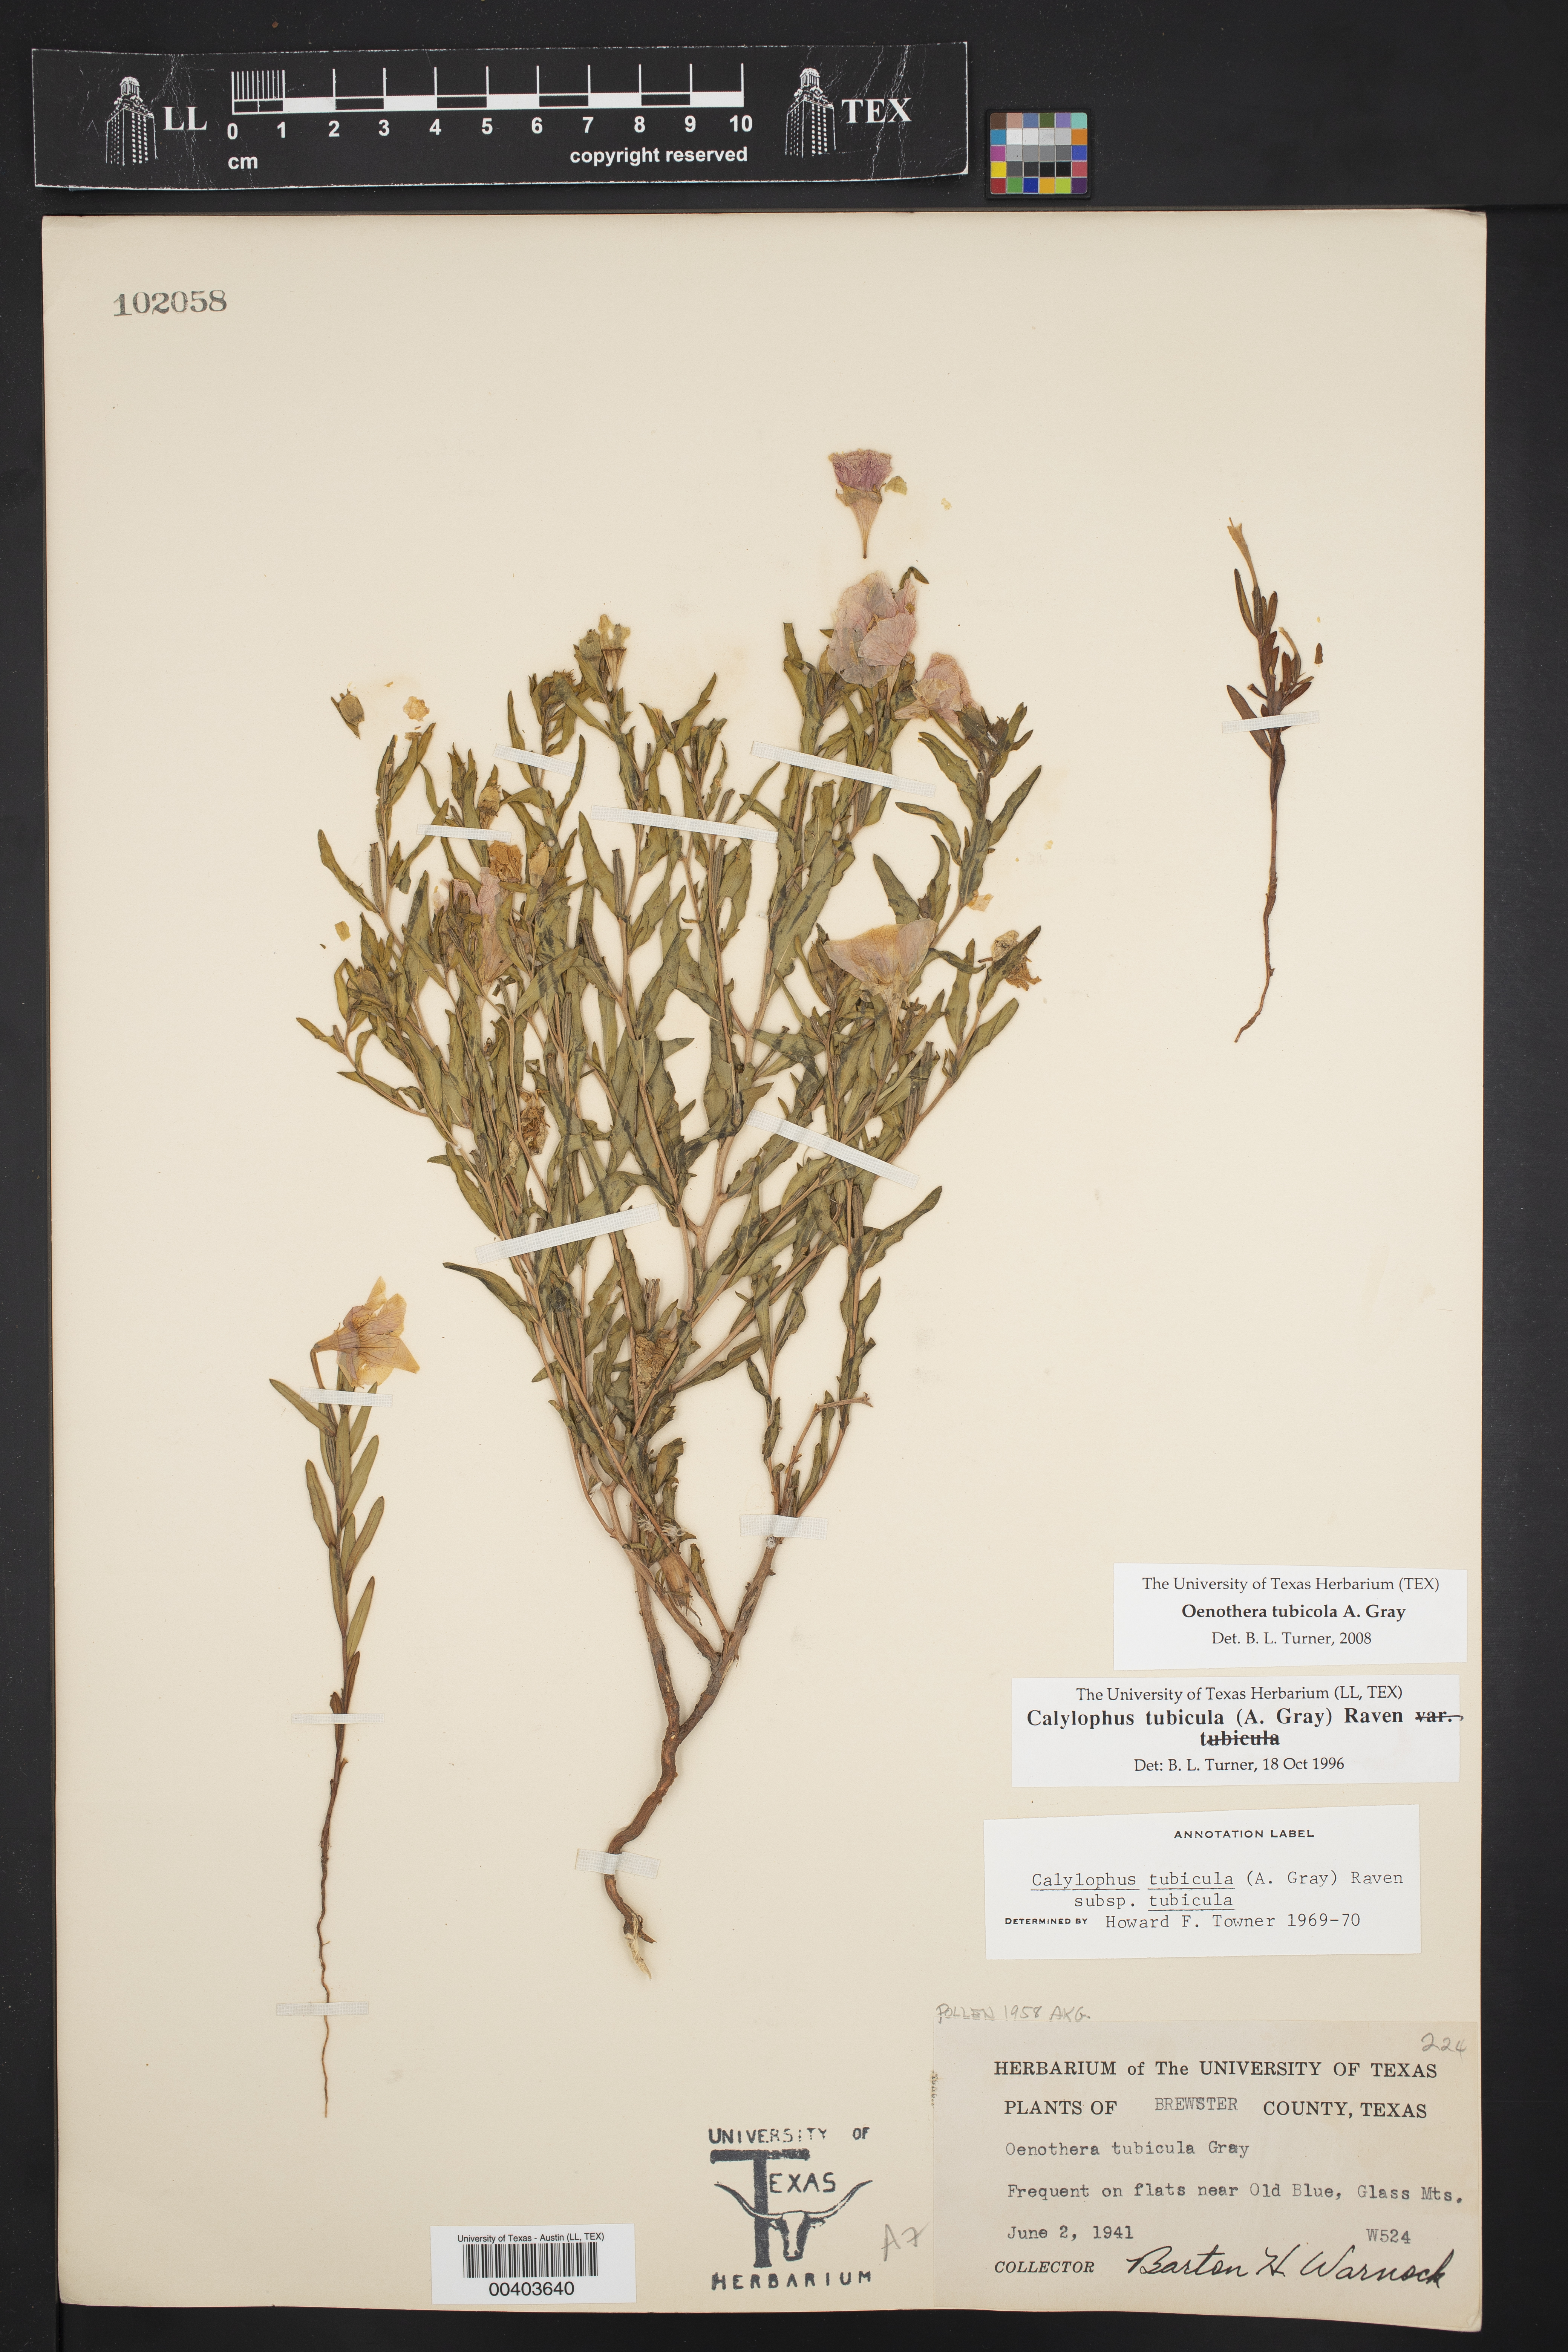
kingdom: Plantae
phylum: Tracheophyta
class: Magnoliopsida
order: Myrtales
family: Onagraceae
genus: Oenothera
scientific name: Oenothera tubicula
